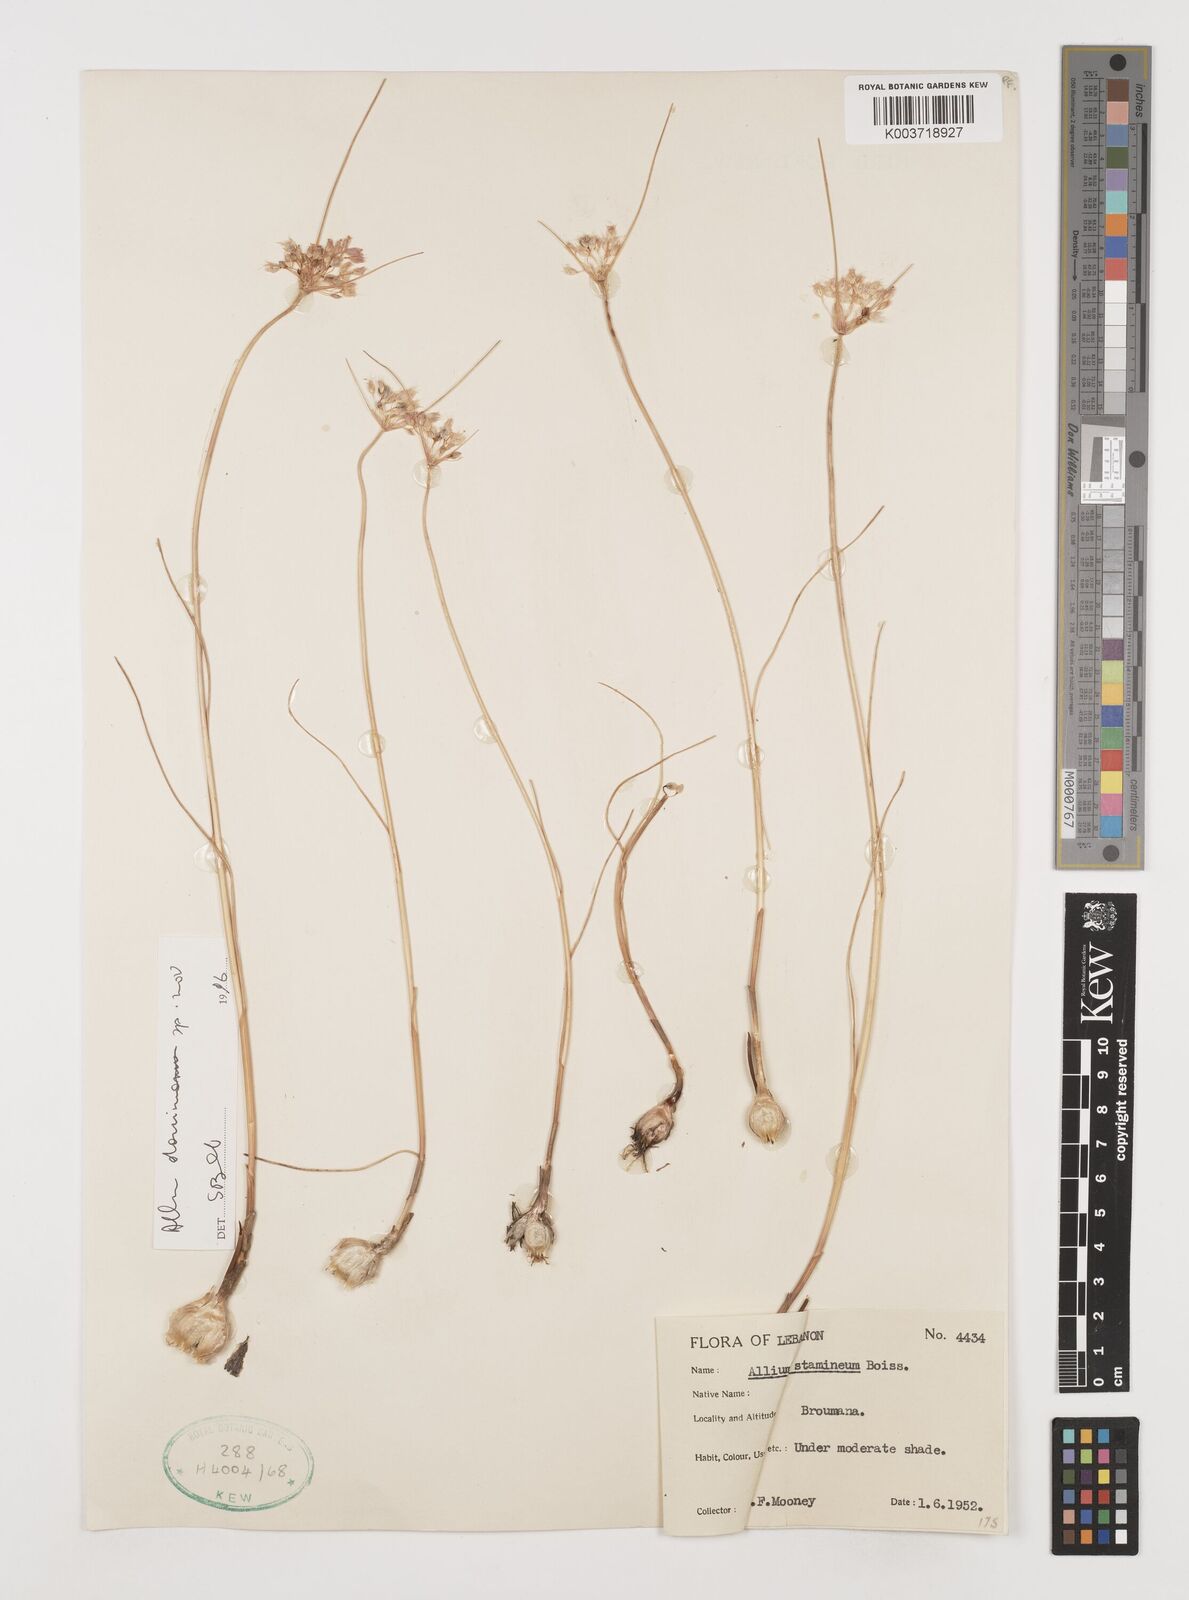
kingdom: Plantae
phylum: Tracheophyta
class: Liliopsida
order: Asparagales
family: Amaryllidaceae
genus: Allium
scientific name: Allium stamineum
